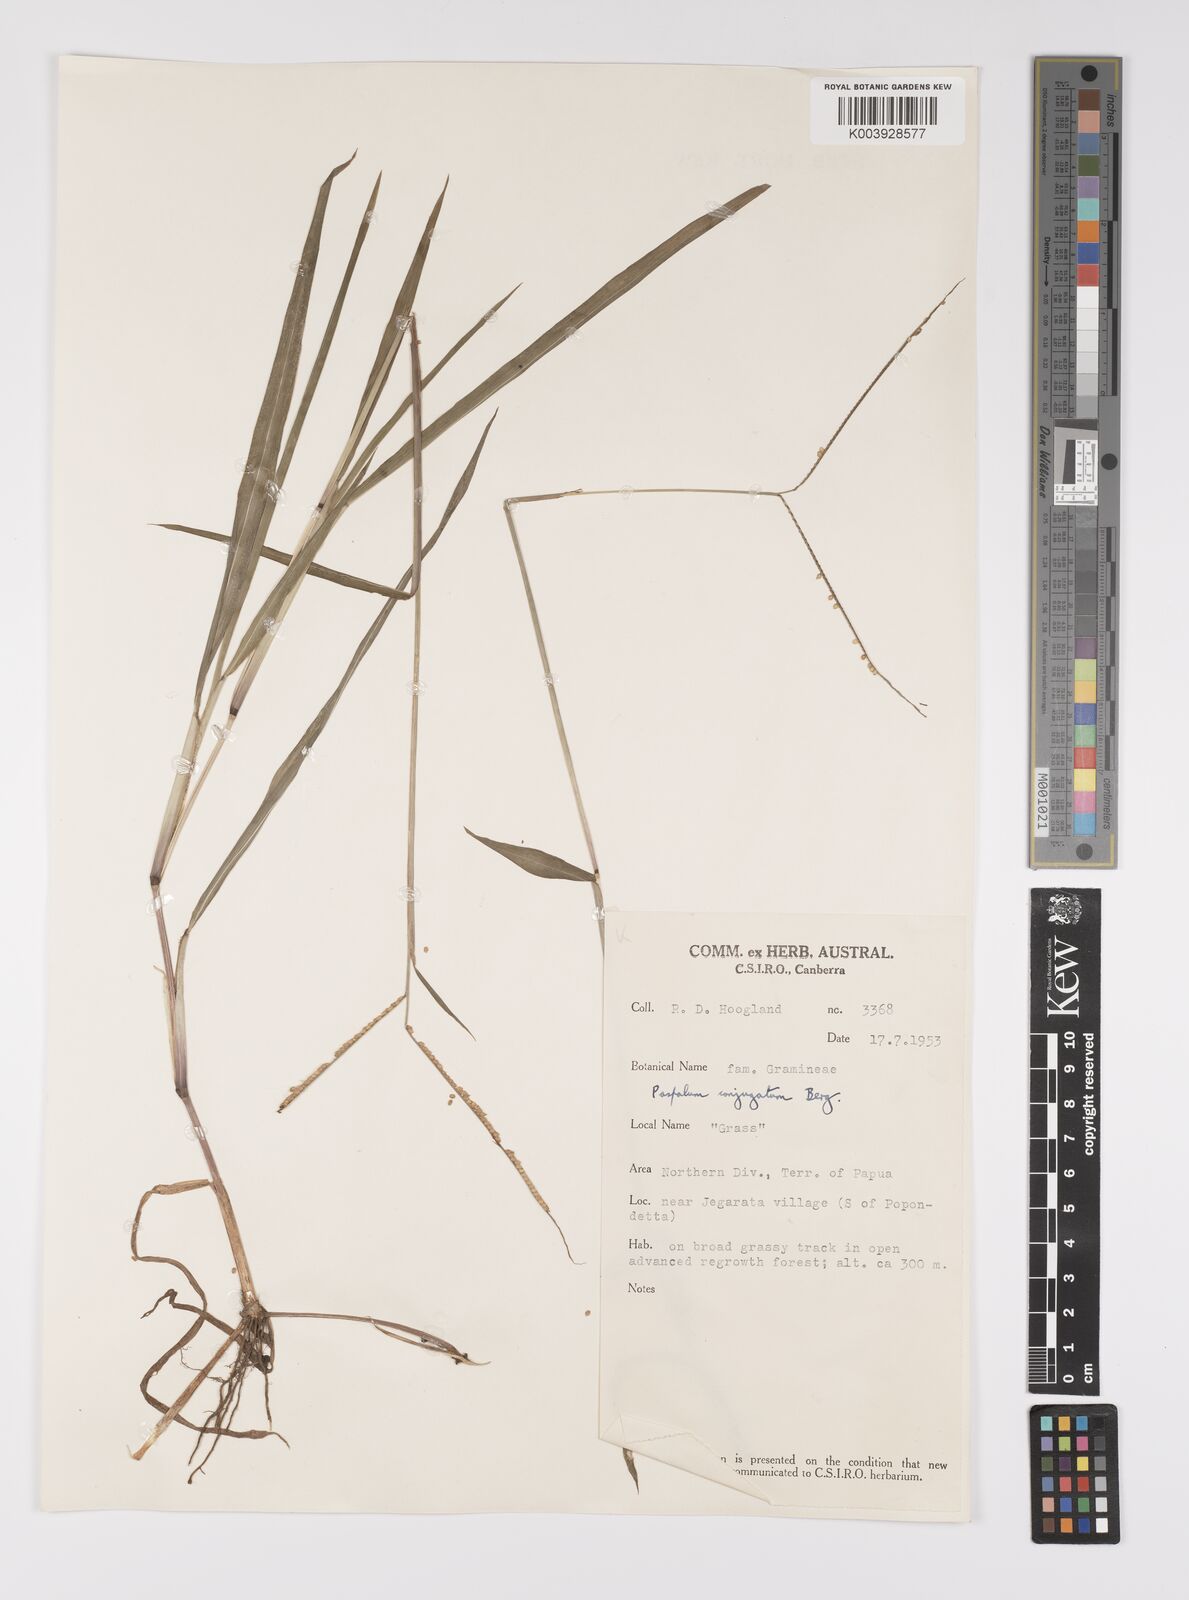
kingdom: Plantae
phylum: Tracheophyta
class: Liliopsida
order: Poales
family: Poaceae
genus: Paspalum
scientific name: Paspalum conjugatum
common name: Hilograss
